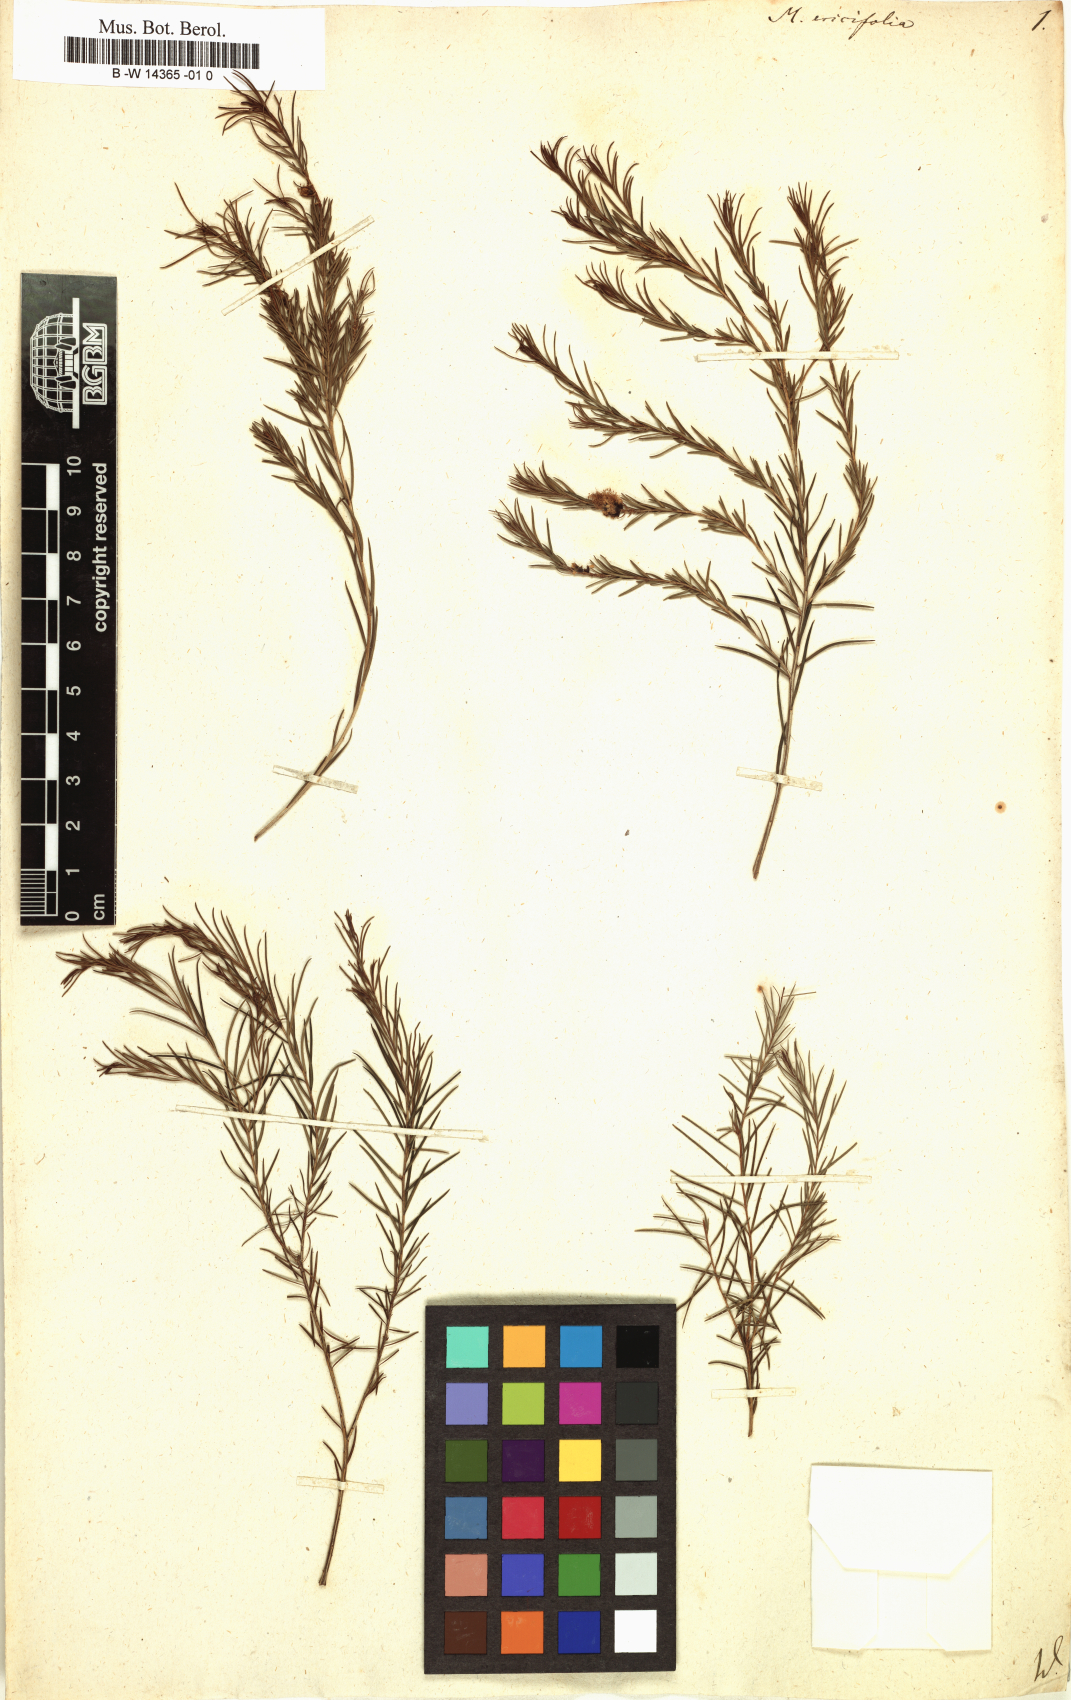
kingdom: Plantae
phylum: Tracheophyta
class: Magnoliopsida
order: Myrtales
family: Myrtaceae
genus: Melaleuca
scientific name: Melaleuca ericifolia
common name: Paperbark teatree
